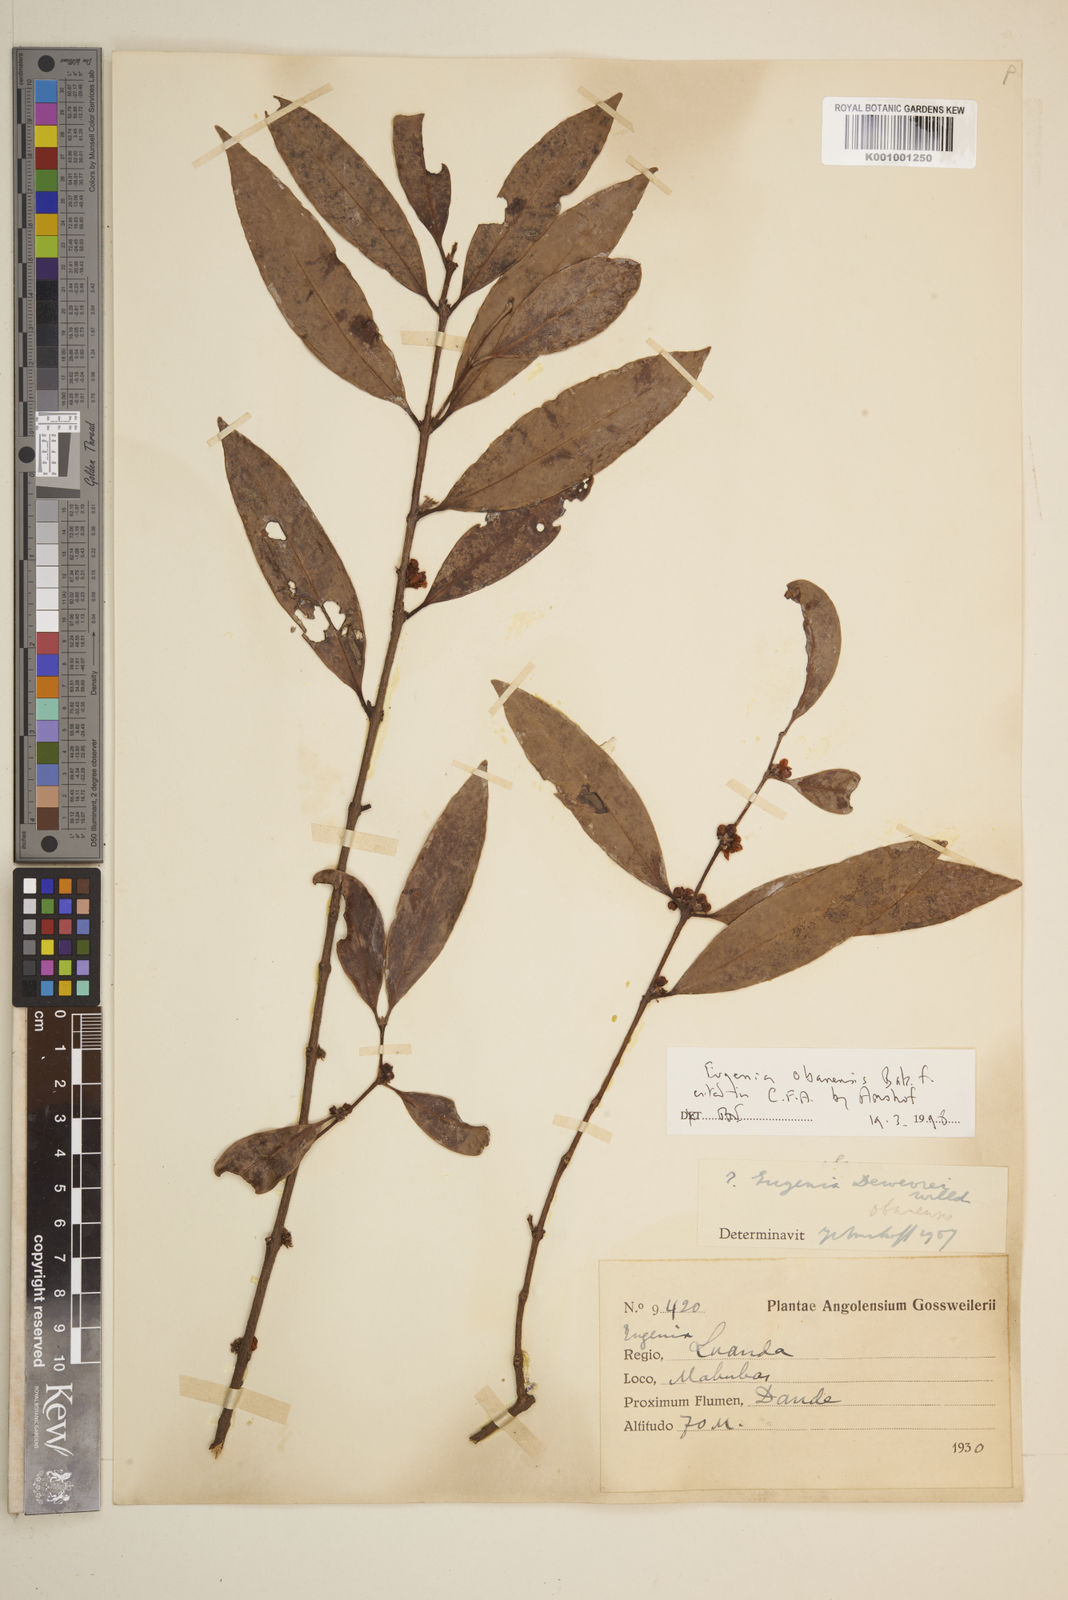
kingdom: Plantae
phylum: Tracheophyta
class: Magnoliopsida
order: Myrtales
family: Myrtaceae
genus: Eugenia
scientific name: Eugenia dewevrei
